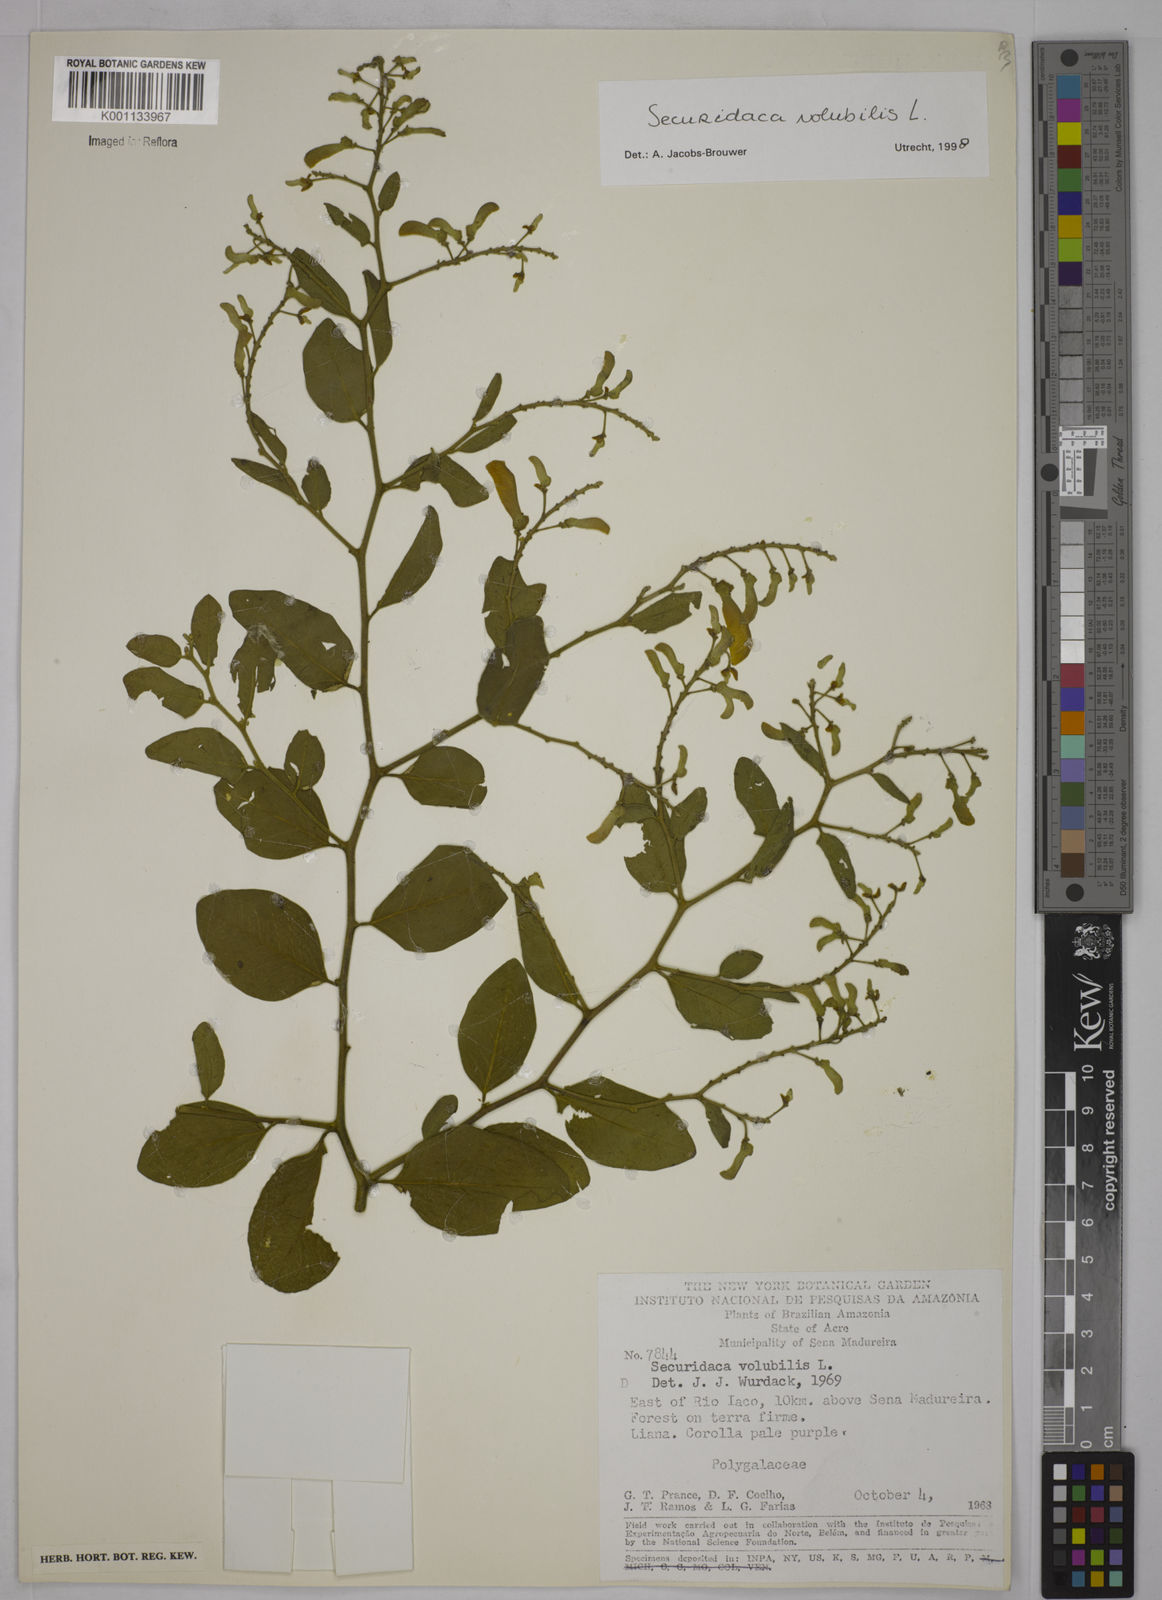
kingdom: Plantae
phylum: Tracheophyta
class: Magnoliopsida
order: Fabales
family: Polygalaceae
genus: Securidaca
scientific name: Securidaca diversifolia
